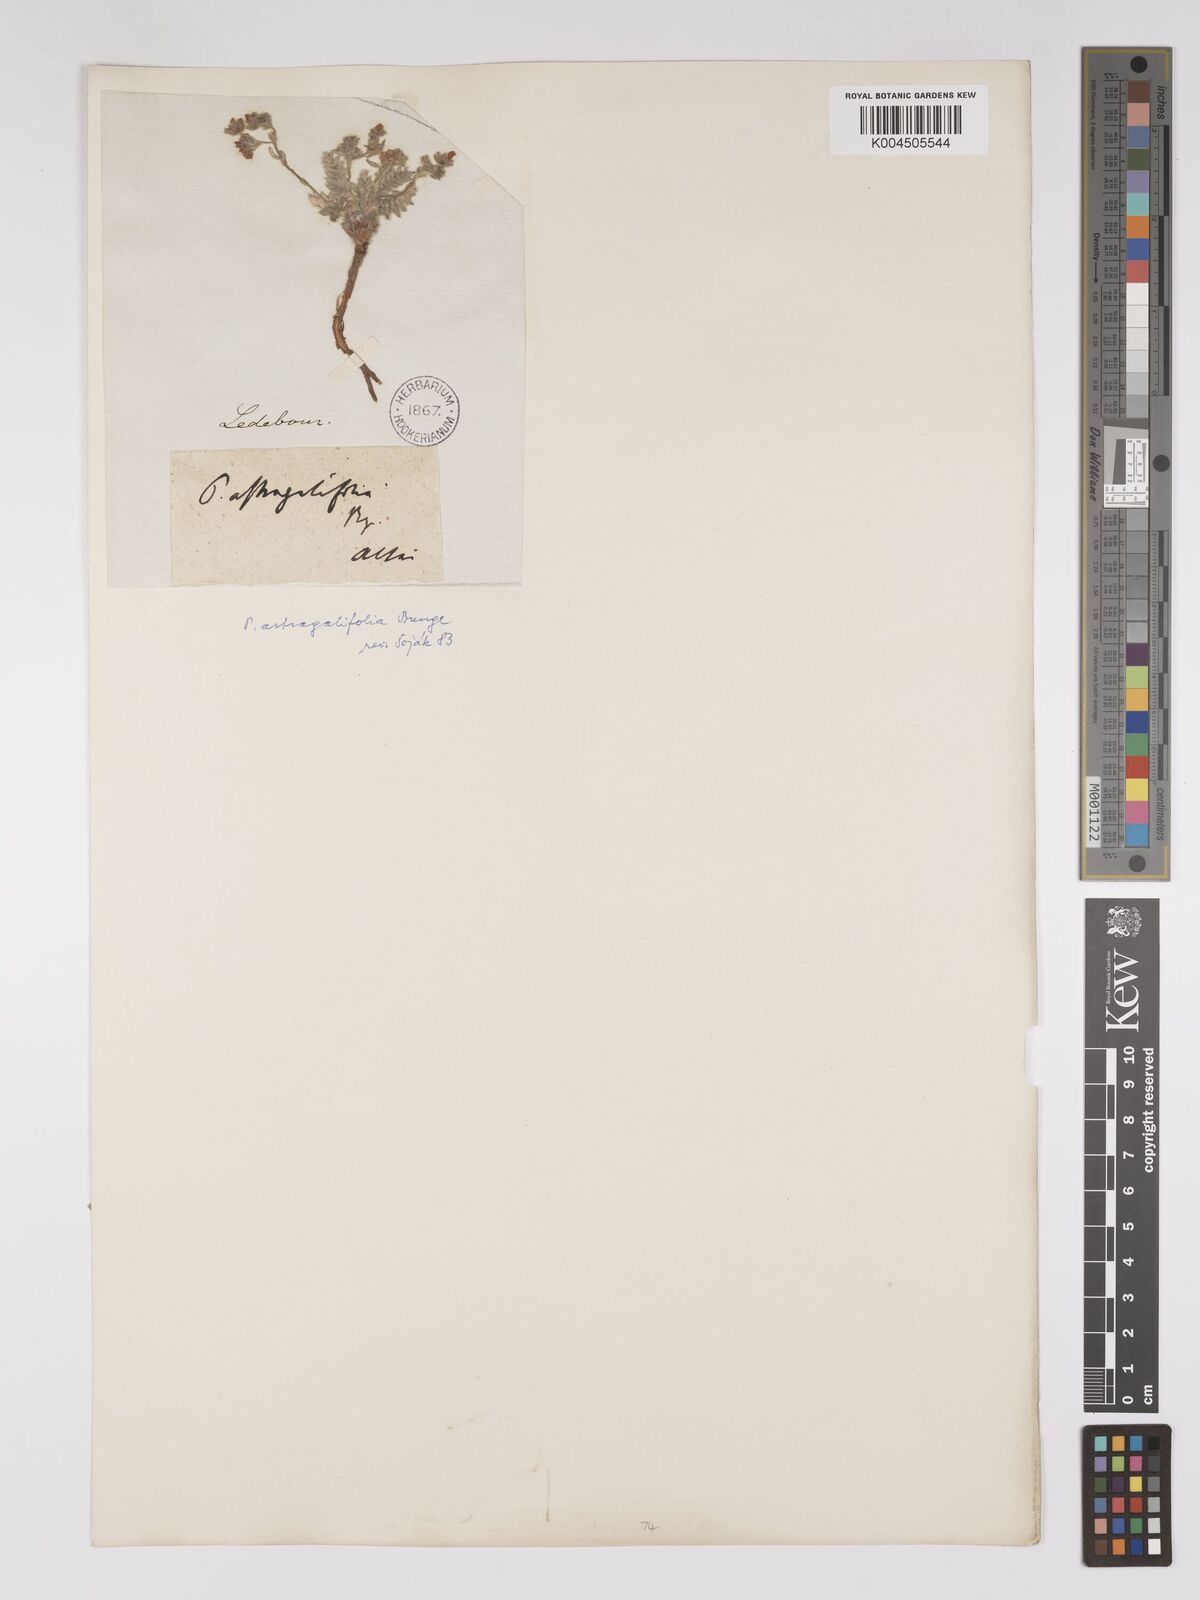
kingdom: Plantae
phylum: Tracheophyta
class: Magnoliopsida
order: Rosales
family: Rosaceae
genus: Sibbaldianthe
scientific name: Sibbaldianthe bifurca
